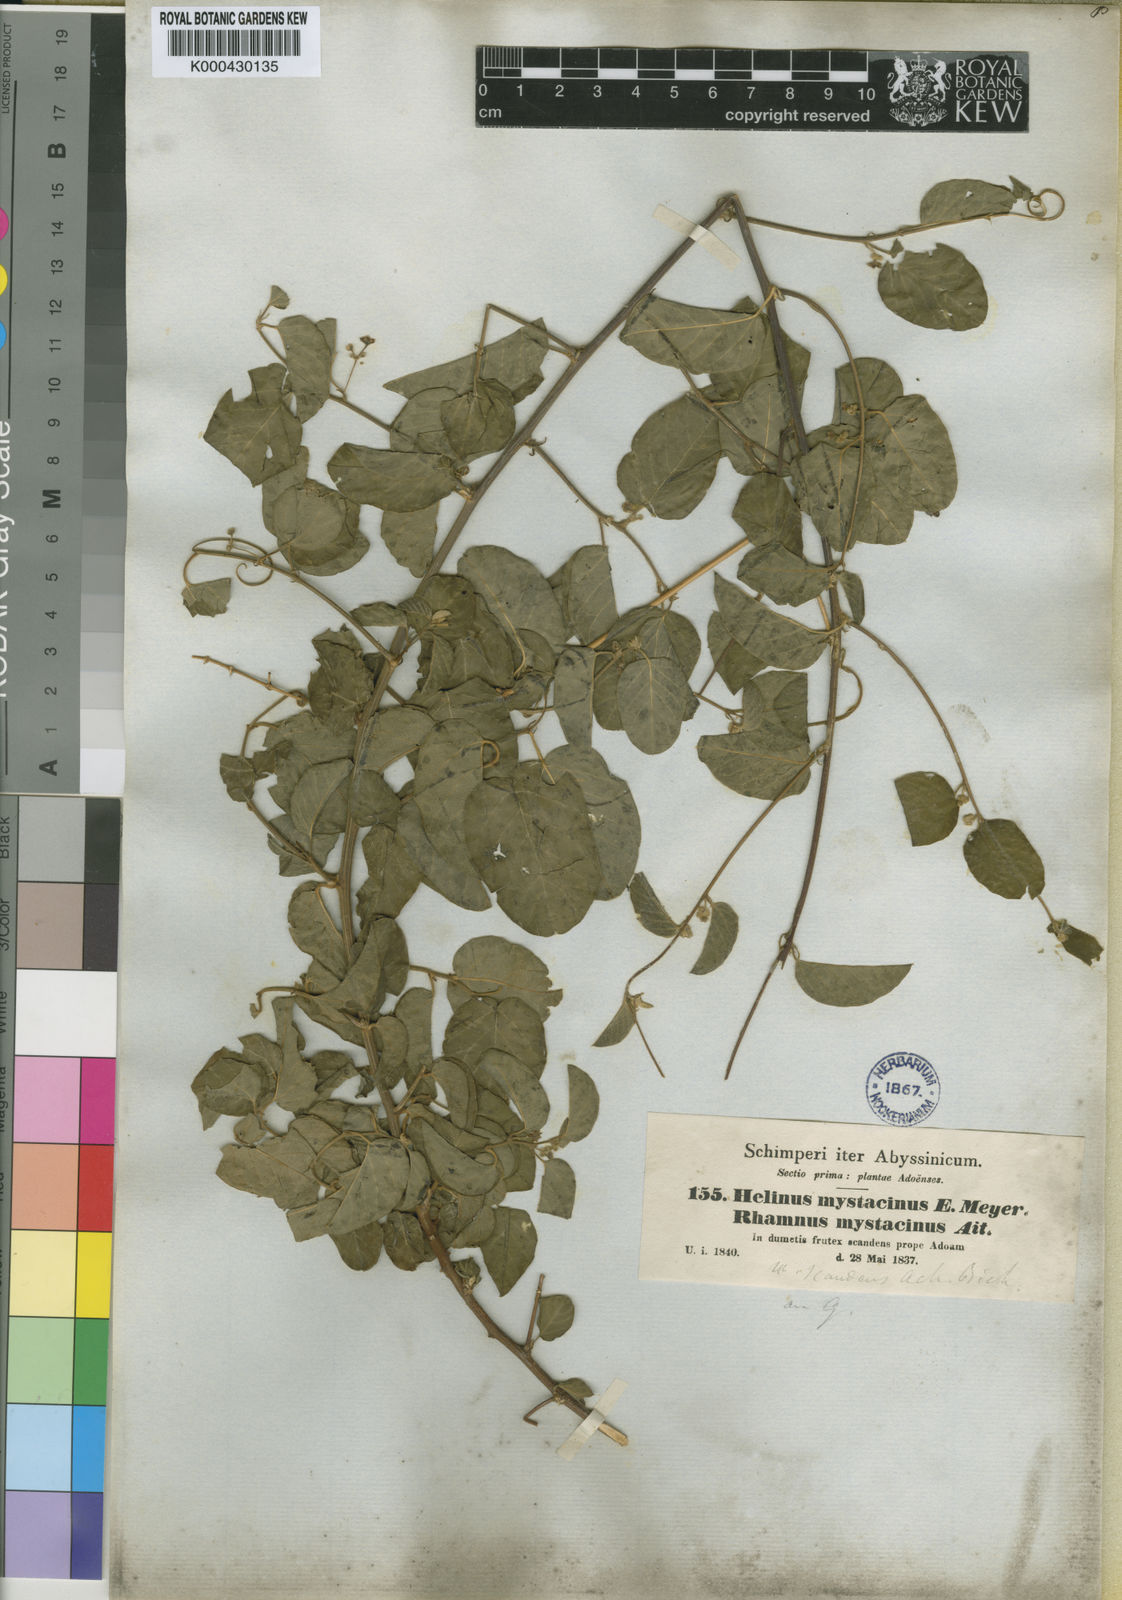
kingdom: Plantae
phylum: Tracheophyta
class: Magnoliopsida
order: Rosales
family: Rhamnaceae
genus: Helinus
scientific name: Helinus mystacinus
